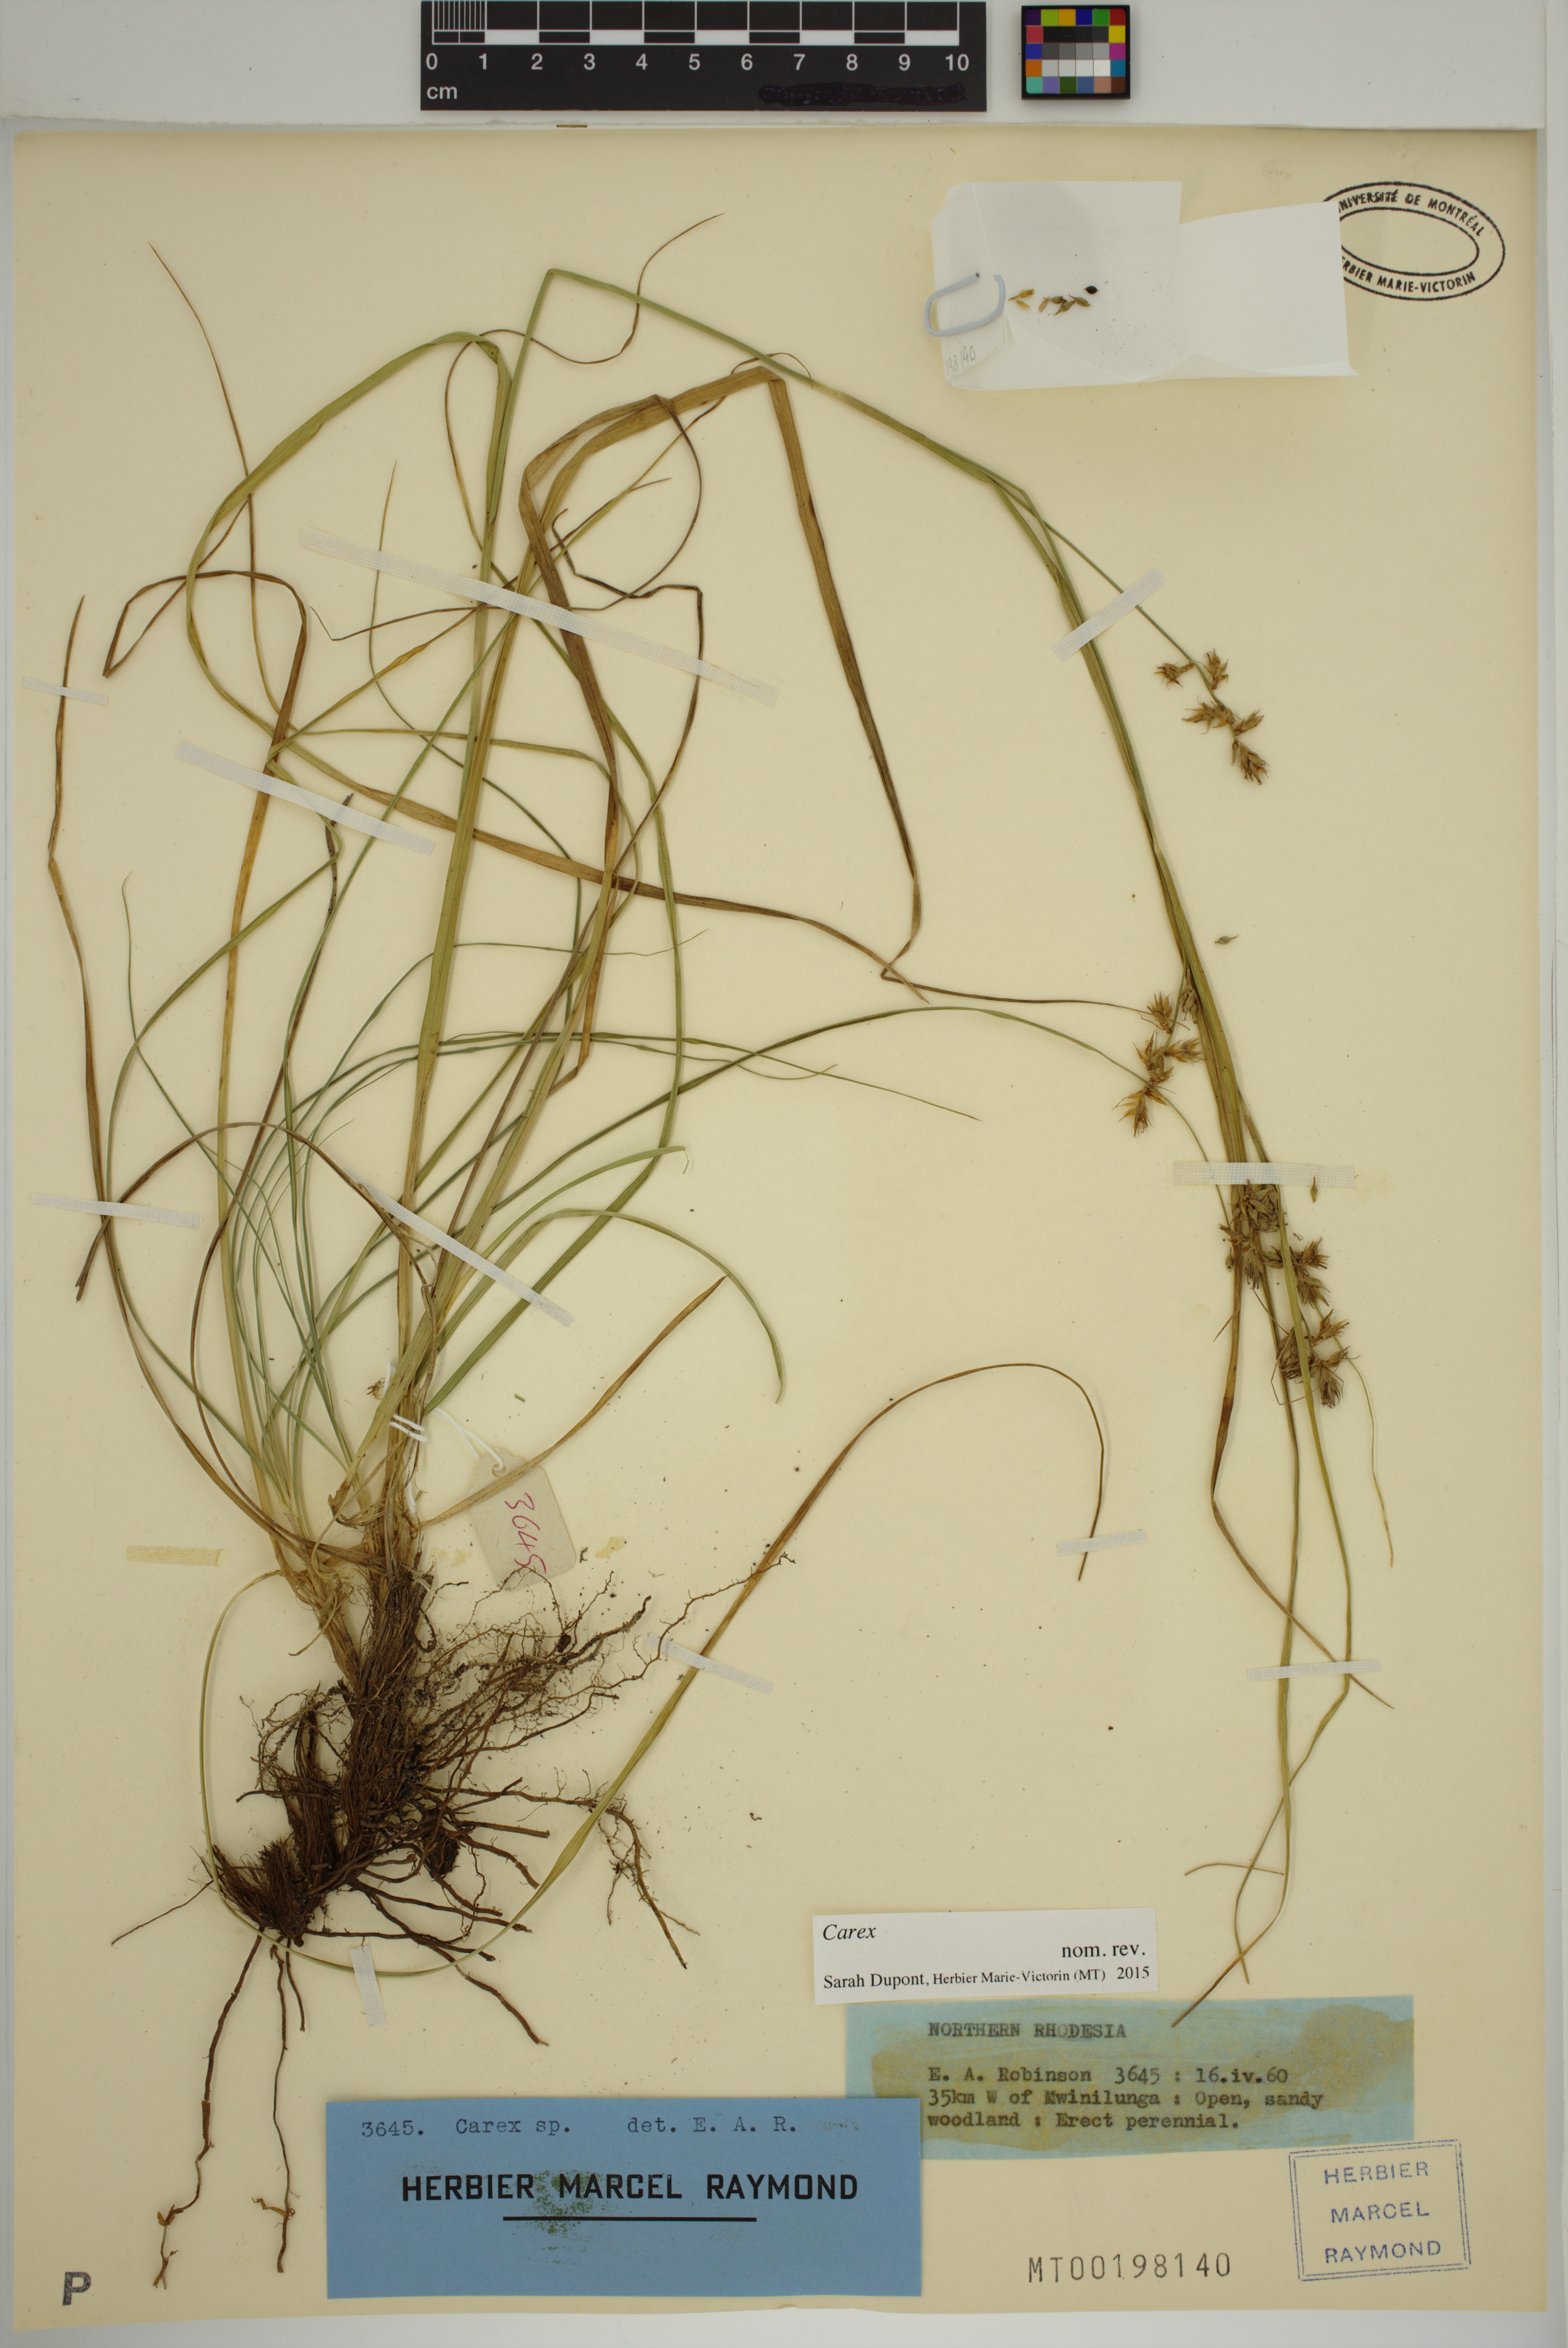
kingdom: Plantae
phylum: Tracheophyta
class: Liliopsida
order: Poales
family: Cyperaceae
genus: Carex
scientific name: Carex
